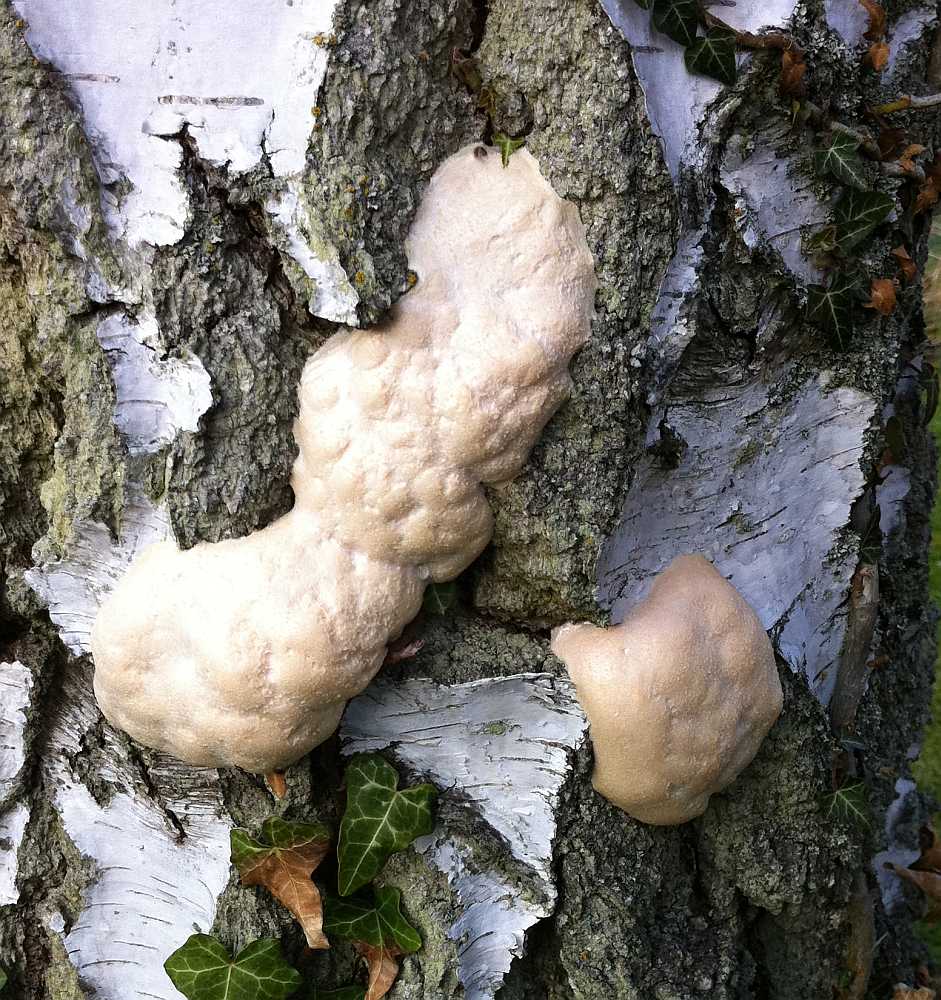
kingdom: Protozoa
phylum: Mycetozoa
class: Myxomycetes
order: Cribrariales
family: Tubiferaceae
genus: Reticularia
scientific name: Reticularia lycoperdon
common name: skinnende støvpude
